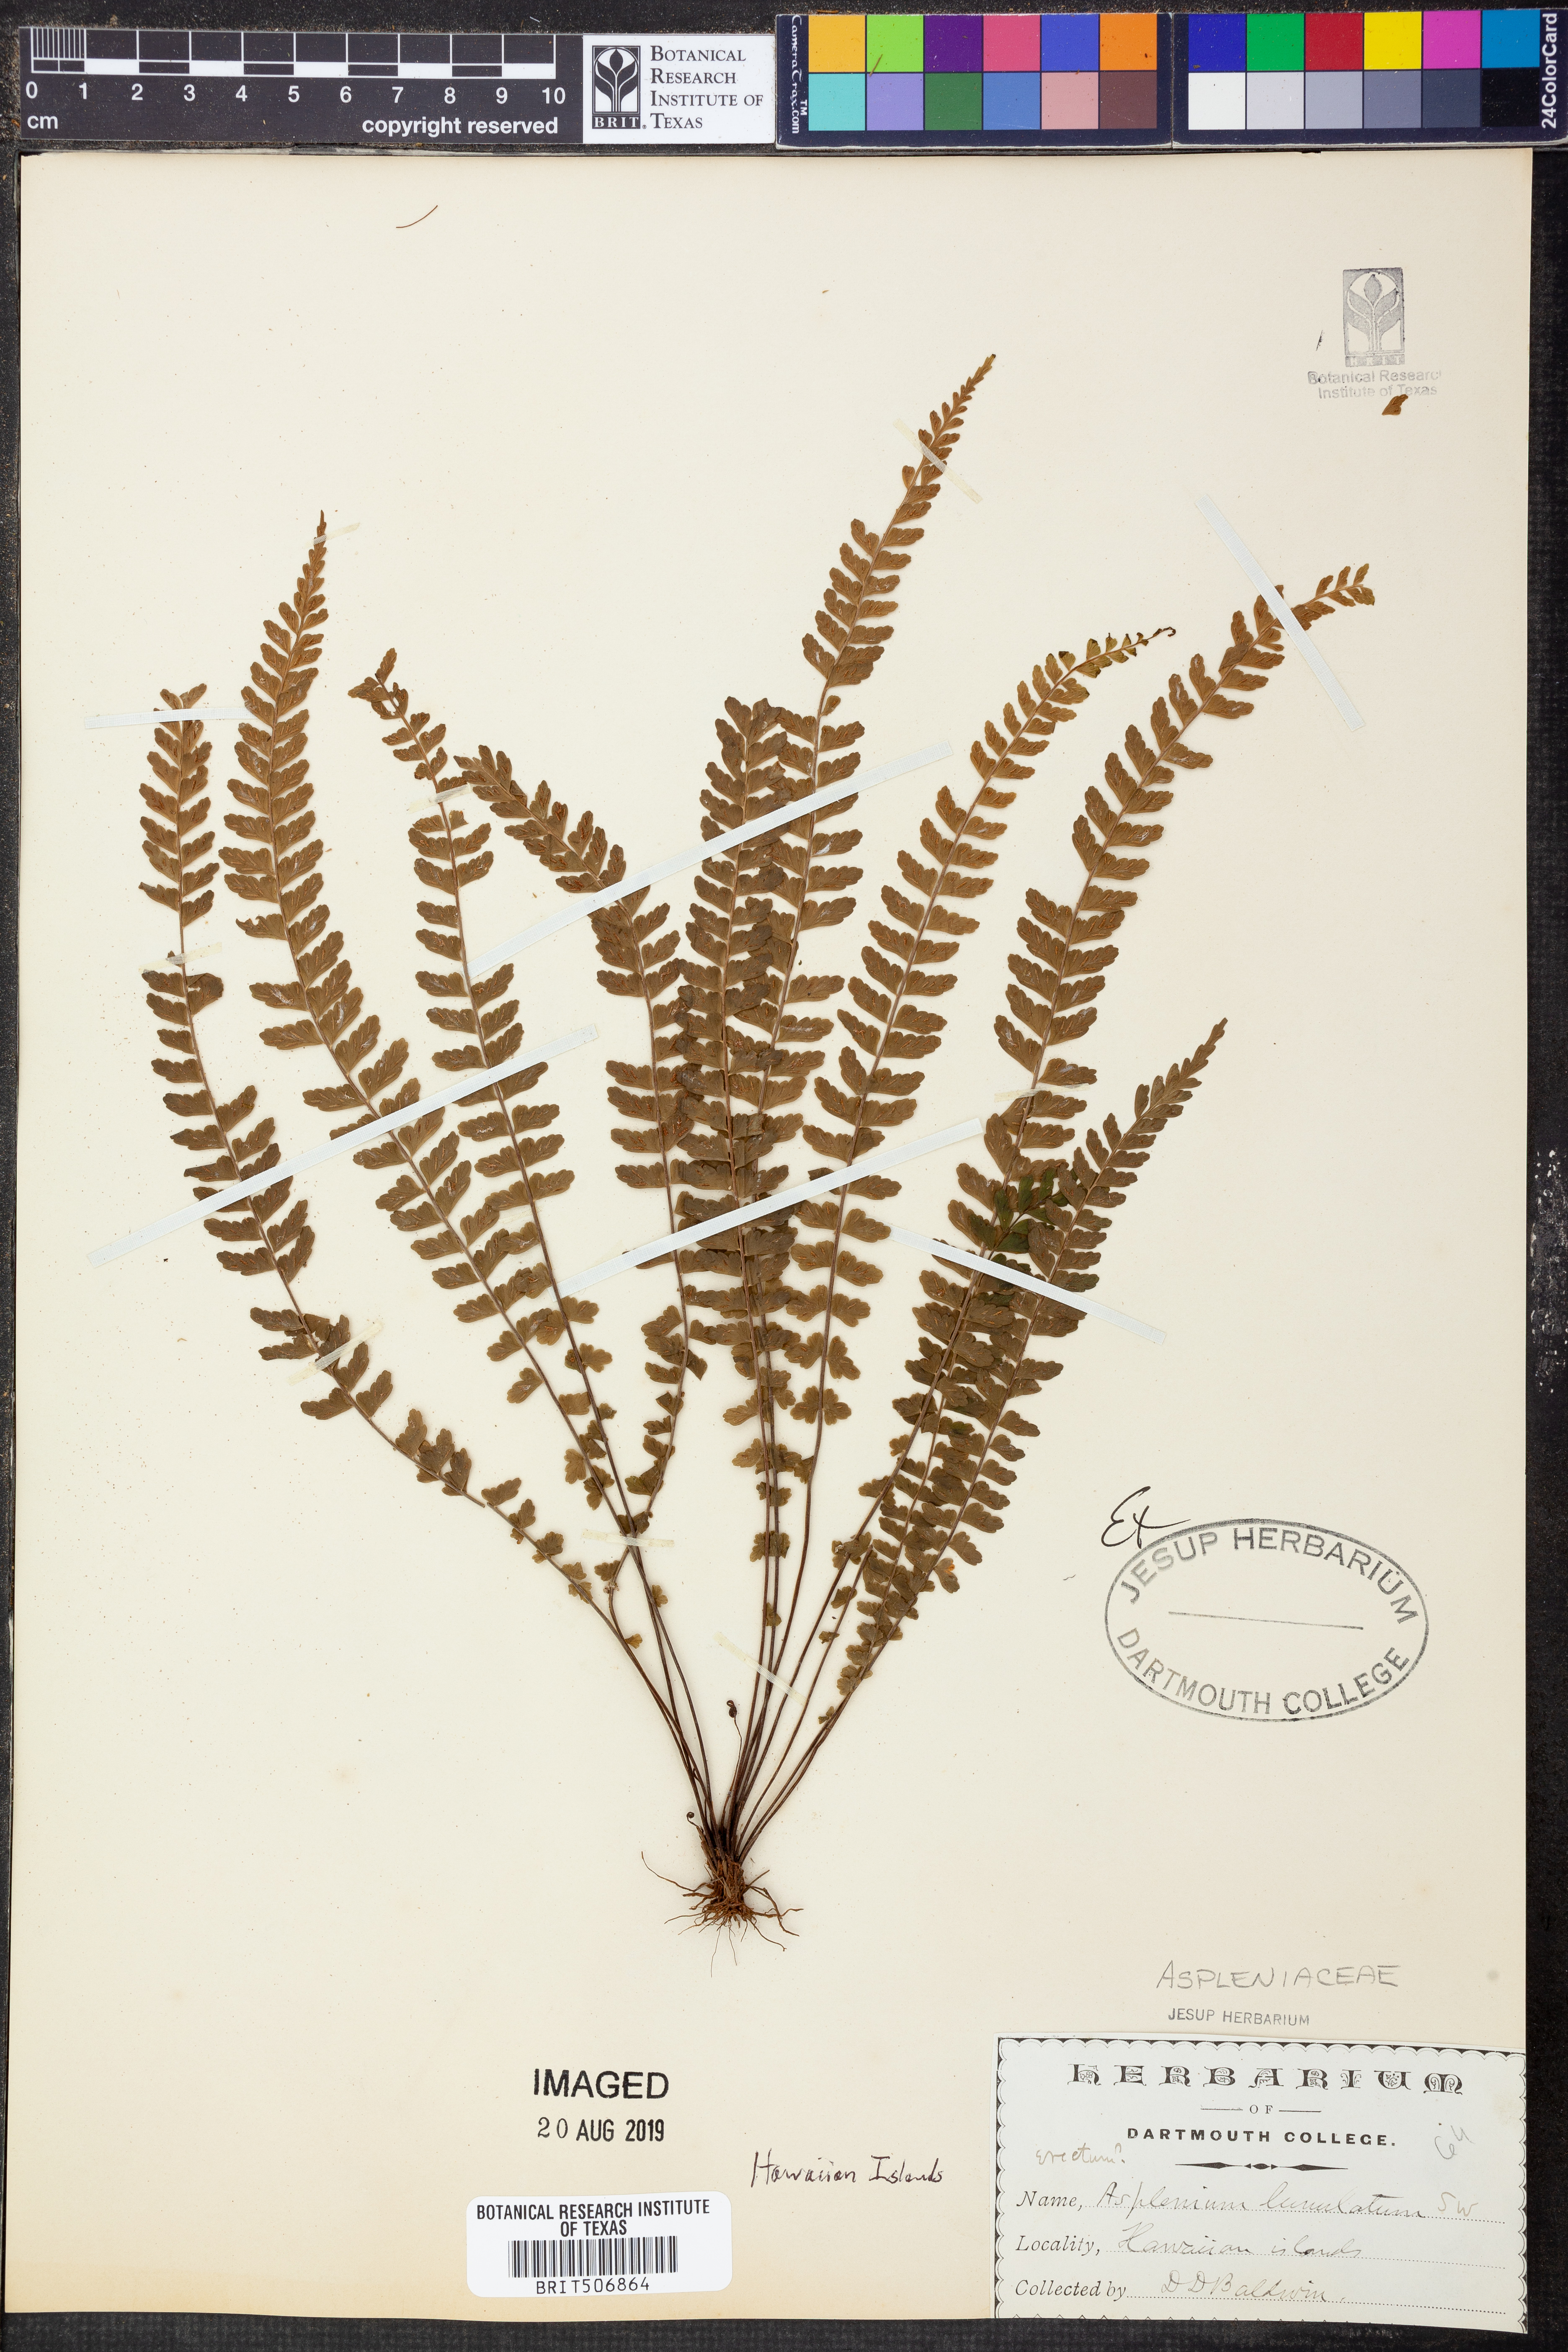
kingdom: Plantae
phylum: Tracheophyta
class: Polypodiopsida
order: Polypodiales
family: Aspleniaceae
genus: Asplenium
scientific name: Asplenium lunulatum
